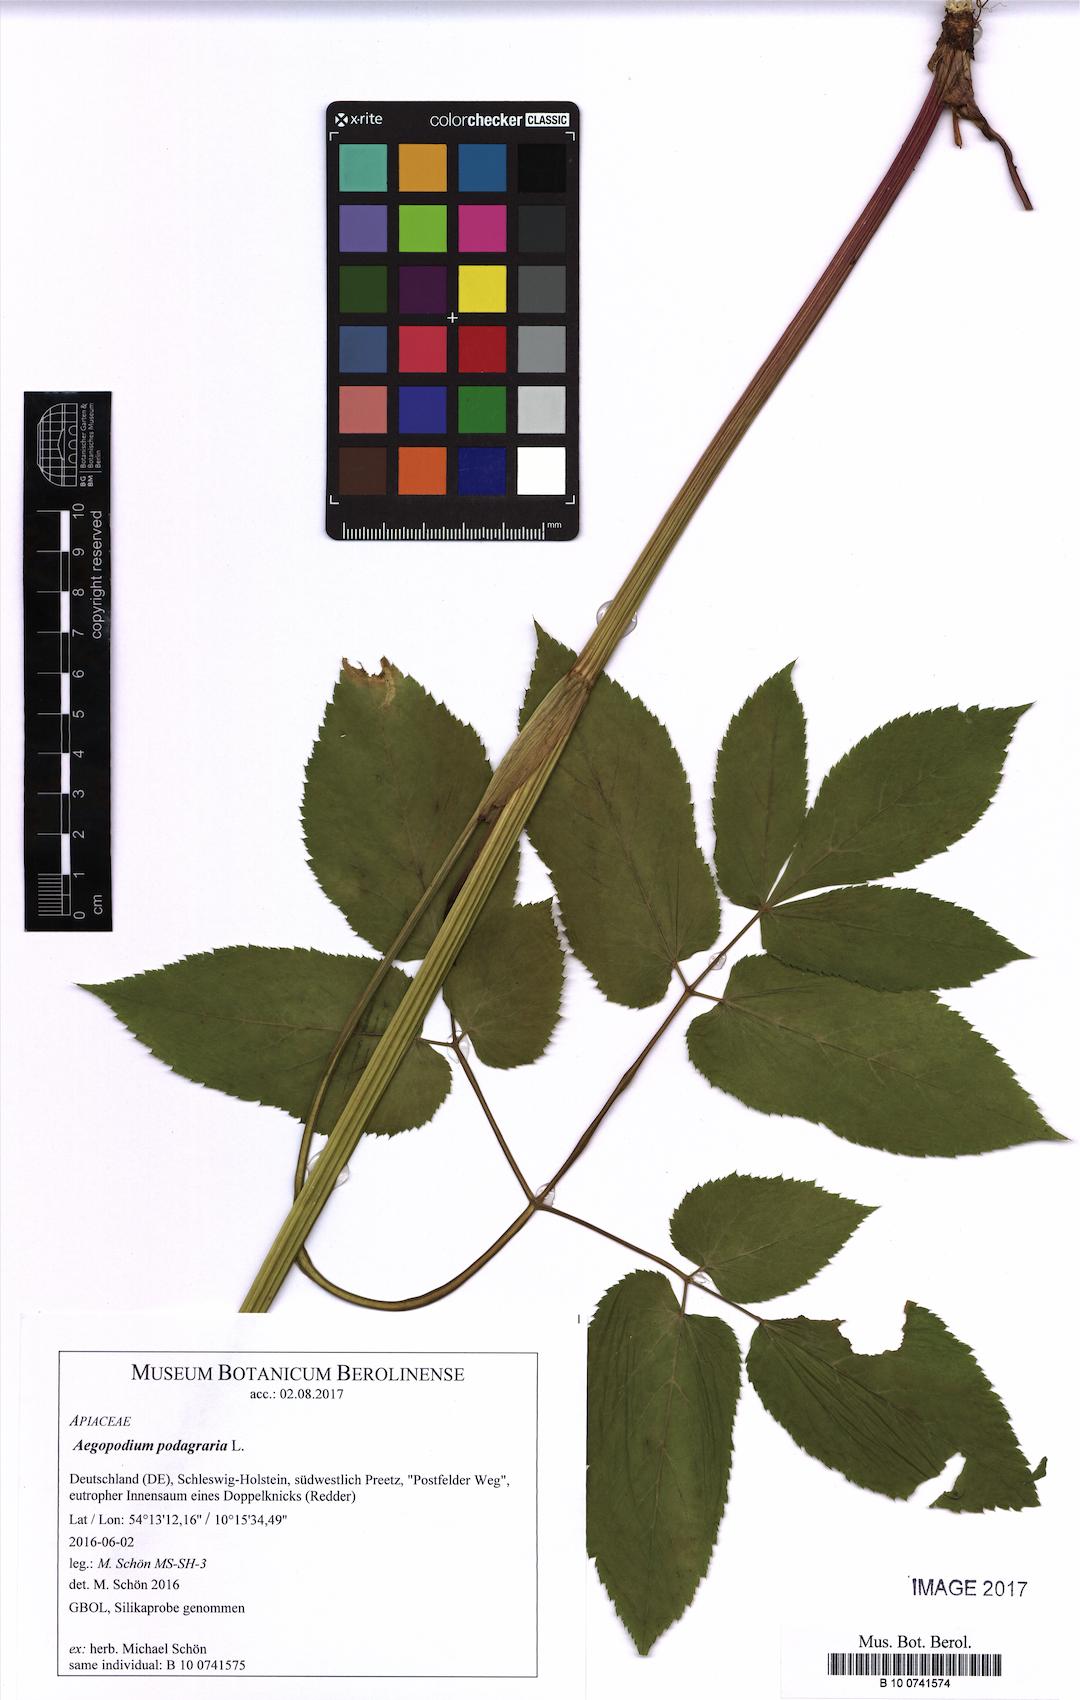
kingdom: Plantae
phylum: Tracheophyta
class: Magnoliopsida
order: Apiales
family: Apiaceae
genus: Aegopodium
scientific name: Aegopodium podagraria
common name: Ground-elder
